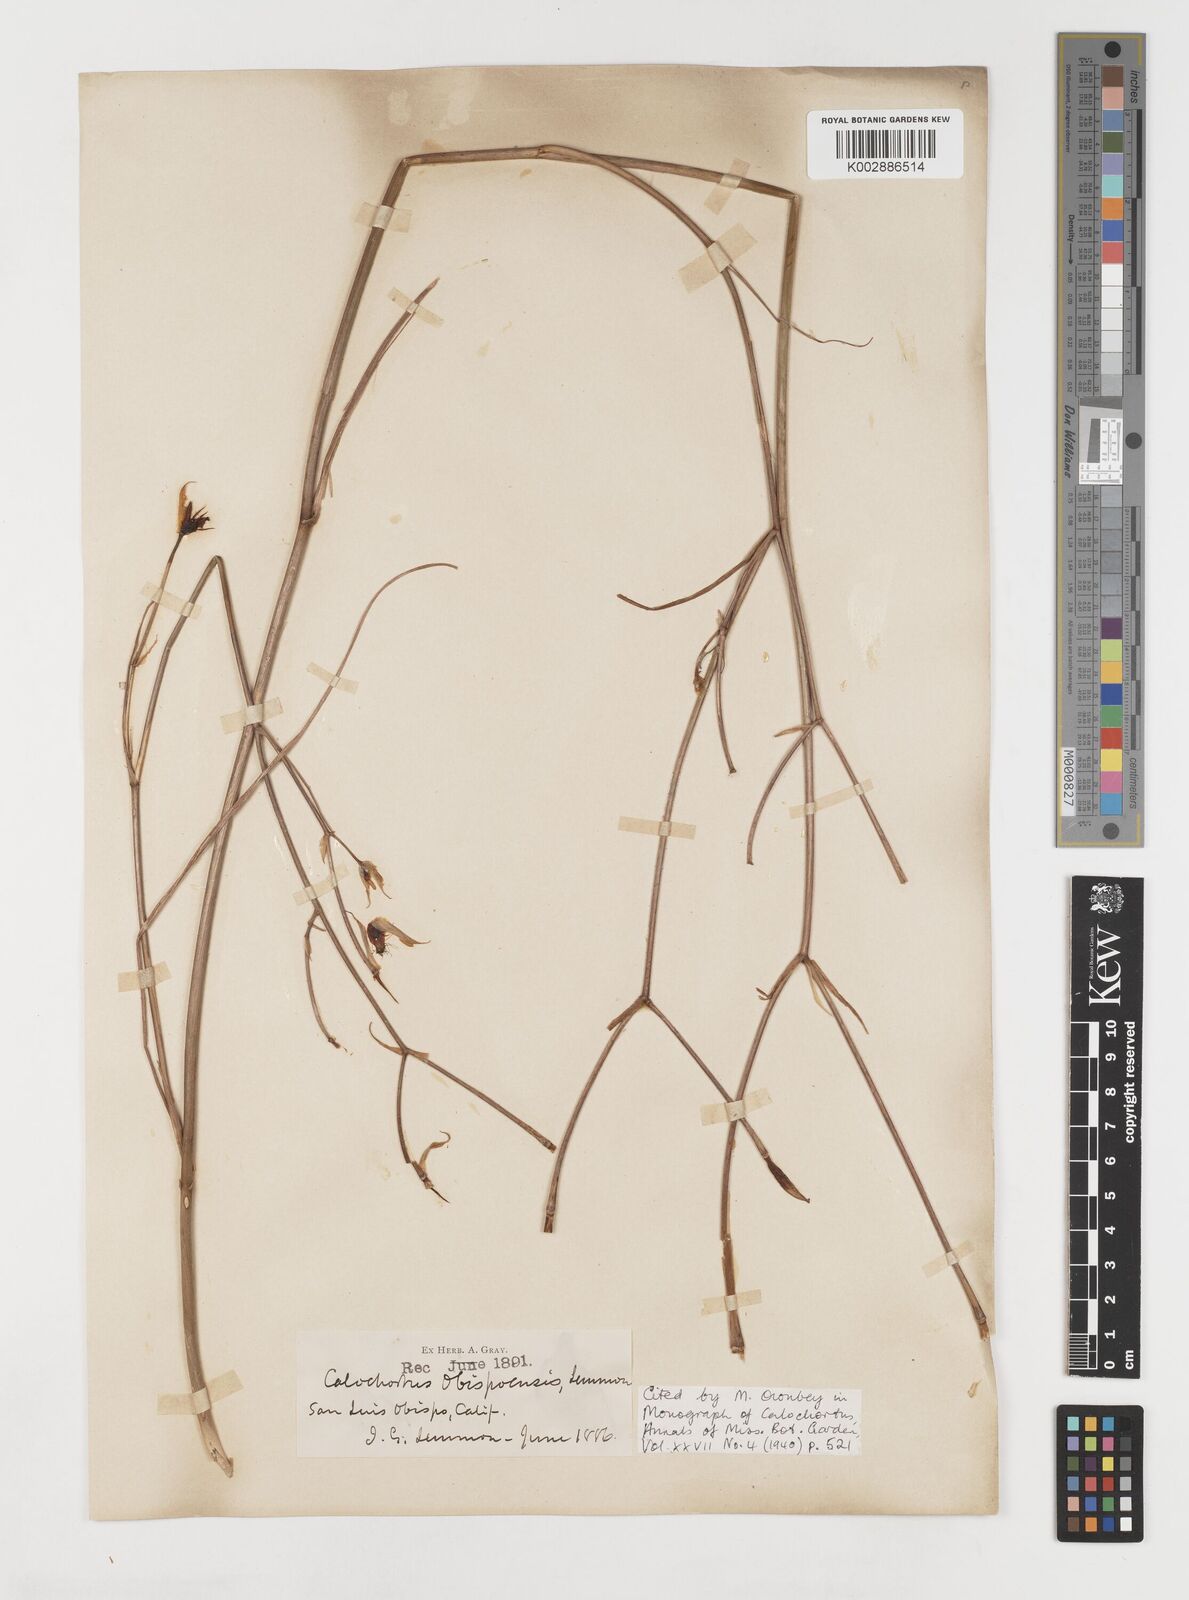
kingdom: Plantae
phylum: Tracheophyta
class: Liliopsida
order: Liliales
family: Liliaceae
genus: Calochortus
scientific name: Calochortus obispoensis
